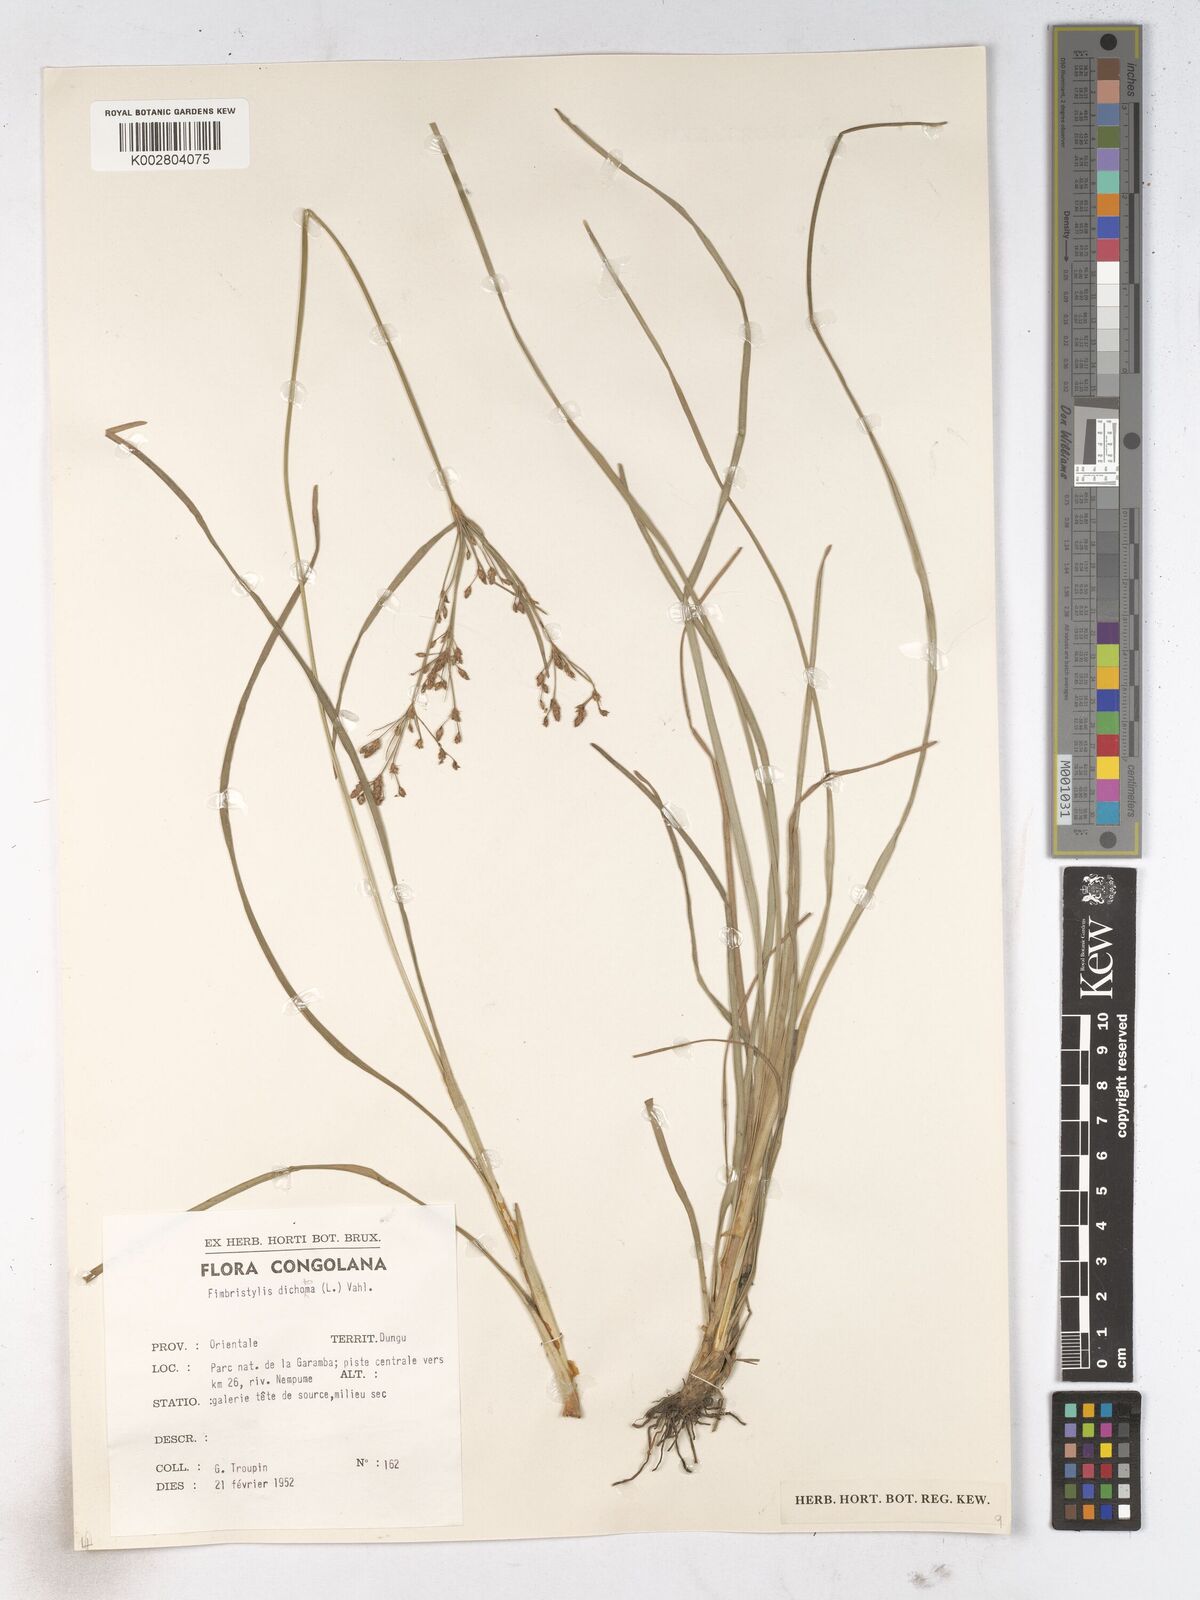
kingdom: Plantae
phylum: Tracheophyta
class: Liliopsida
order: Poales
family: Cyperaceae
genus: Fimbristylis
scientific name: Fimbristylis dichotoma
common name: Forked fimbry
